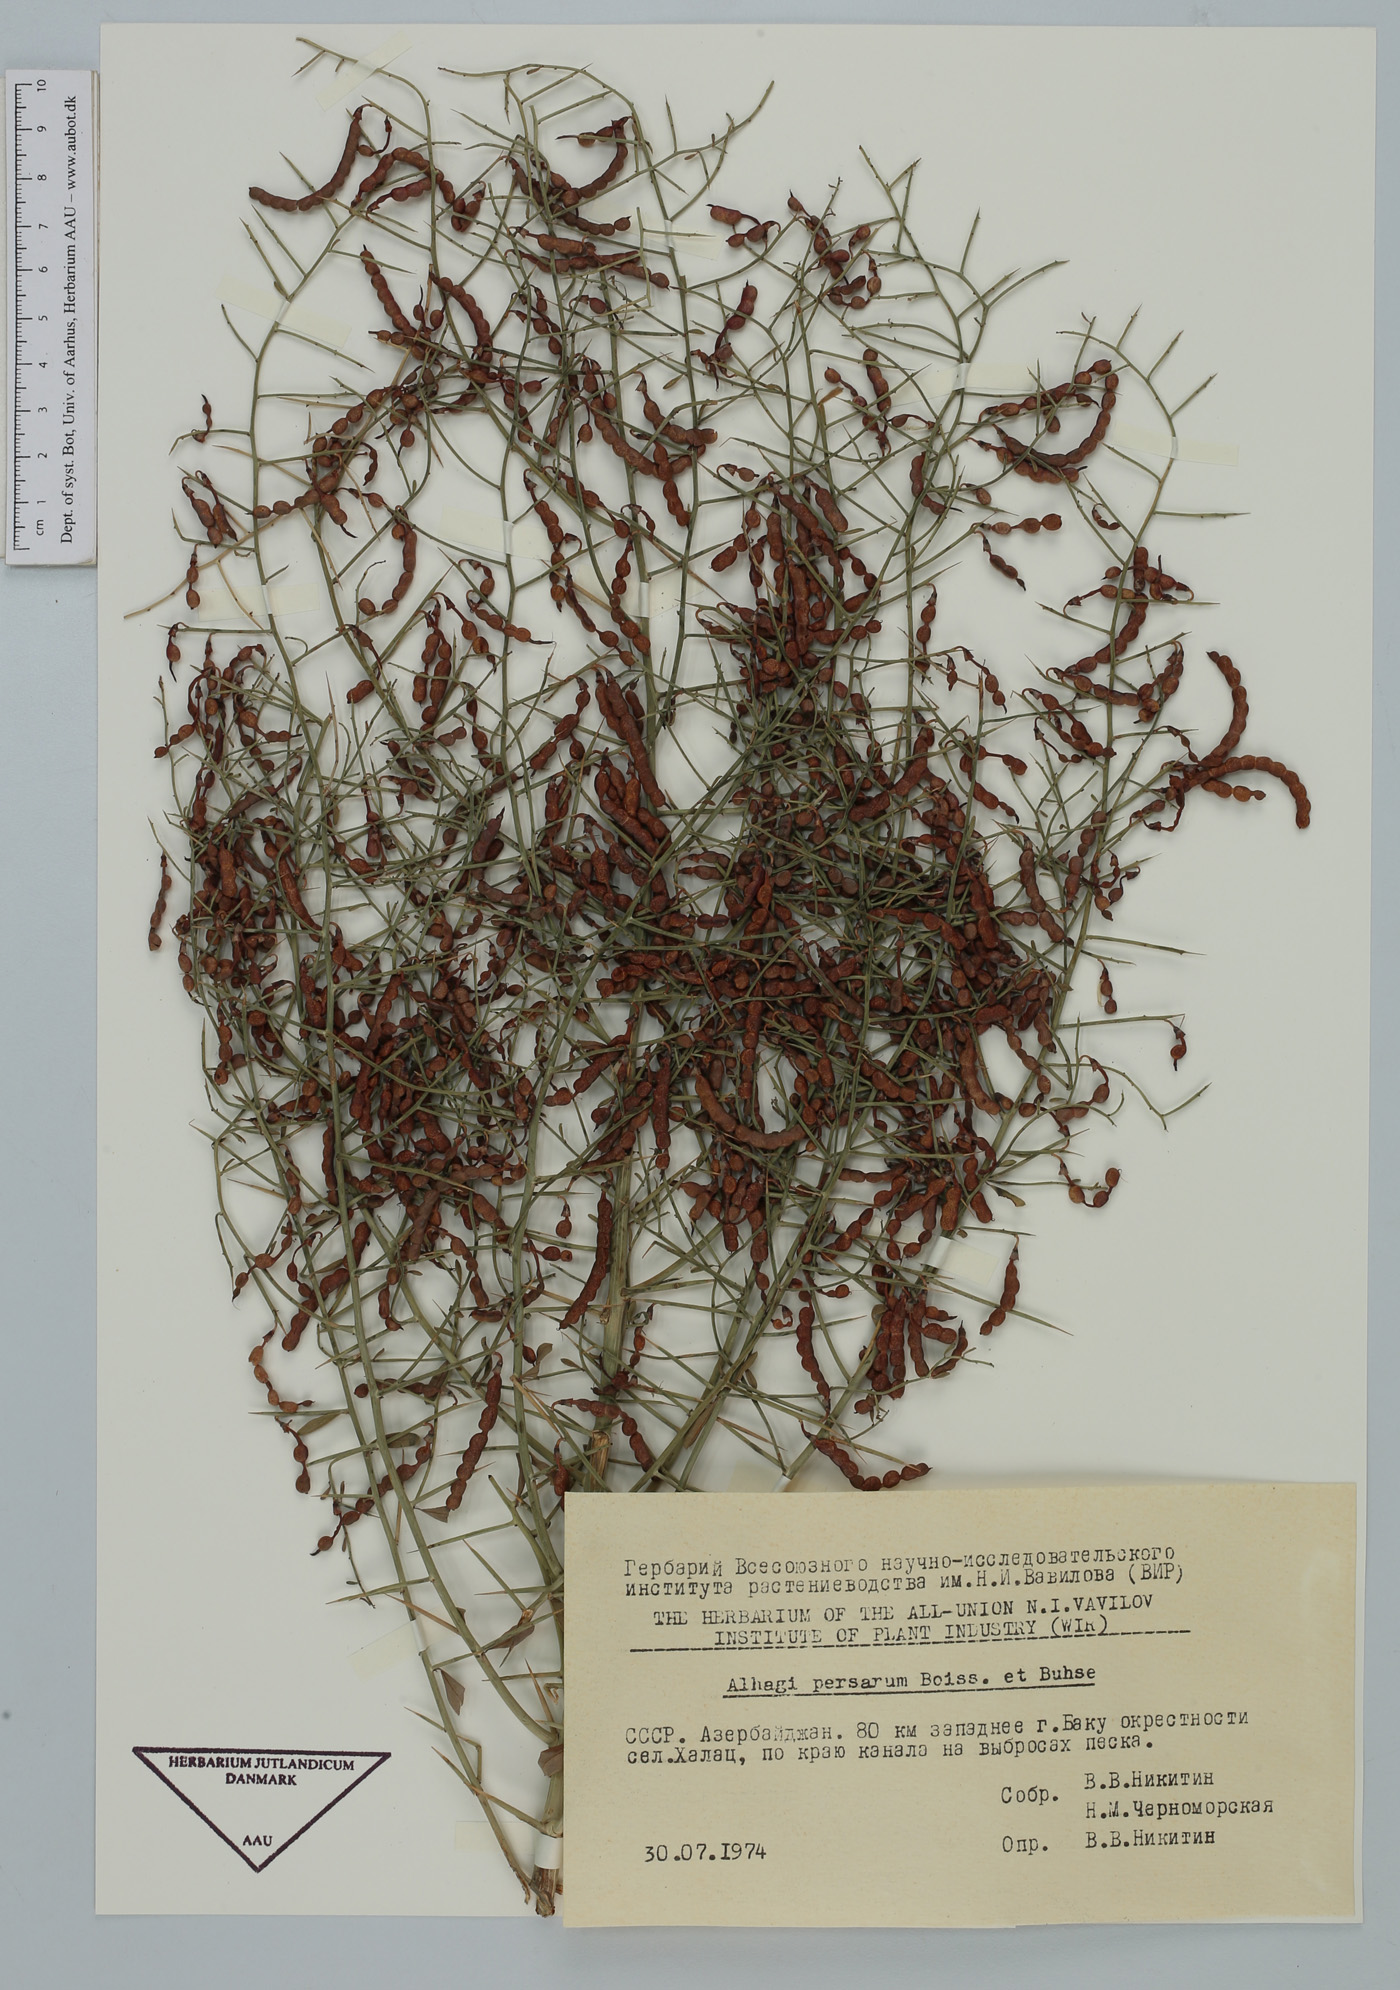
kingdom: Plantae
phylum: Tracheophyta
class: Magnoliopsida
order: Fabales
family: Fabaceae
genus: Alhagi
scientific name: Alhagi maurorum
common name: Camelthorn
